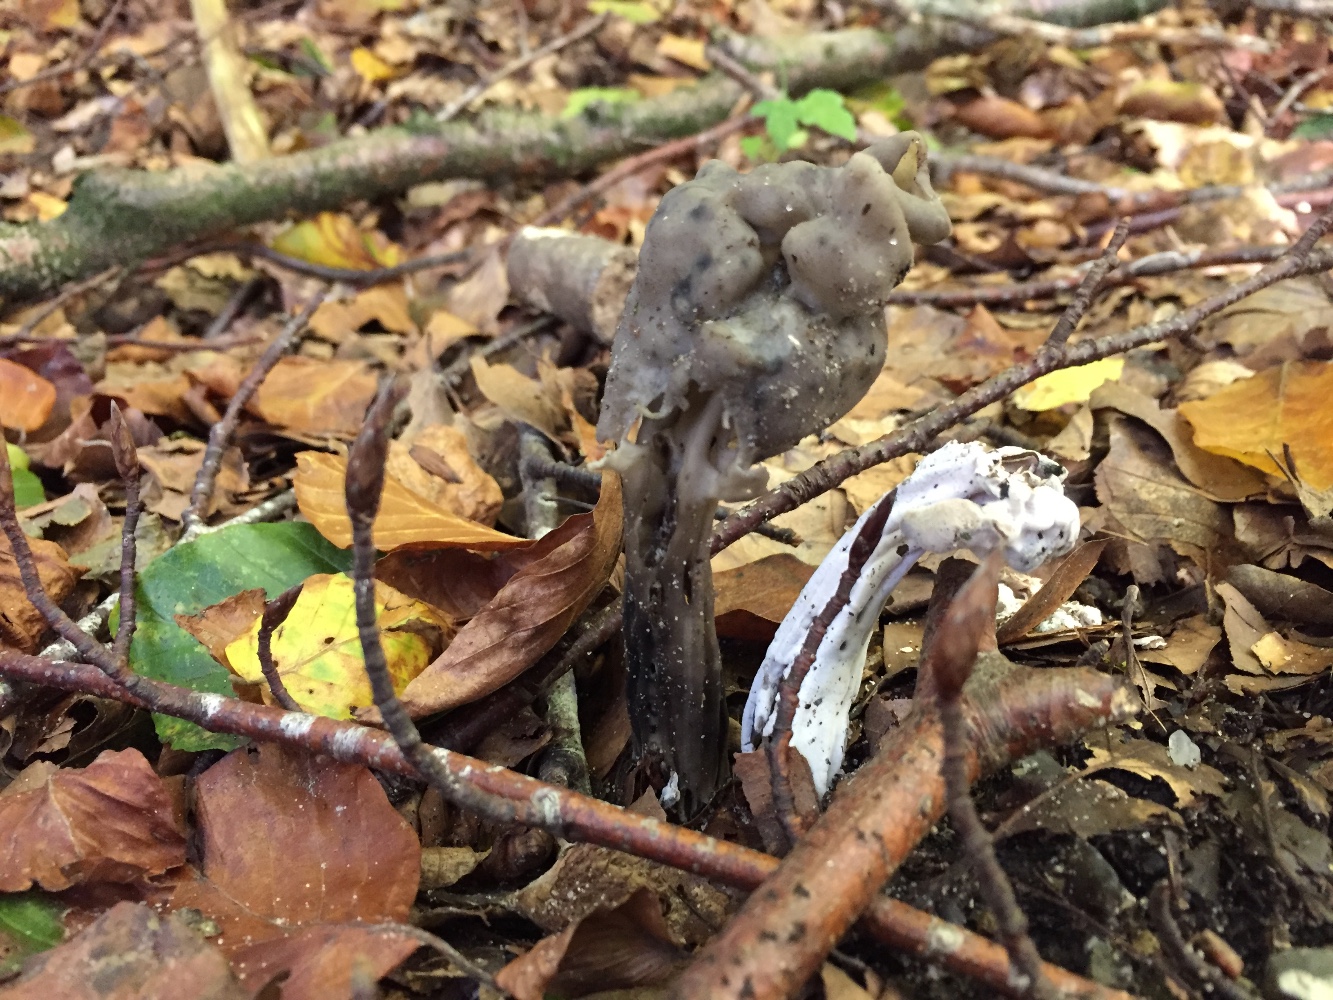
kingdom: Fungi
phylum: Ascomycota
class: Pezizomycetes
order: Pezizales
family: Helvellaceae
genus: Helvella
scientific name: Helvella lacunosa
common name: grubet foldhat
